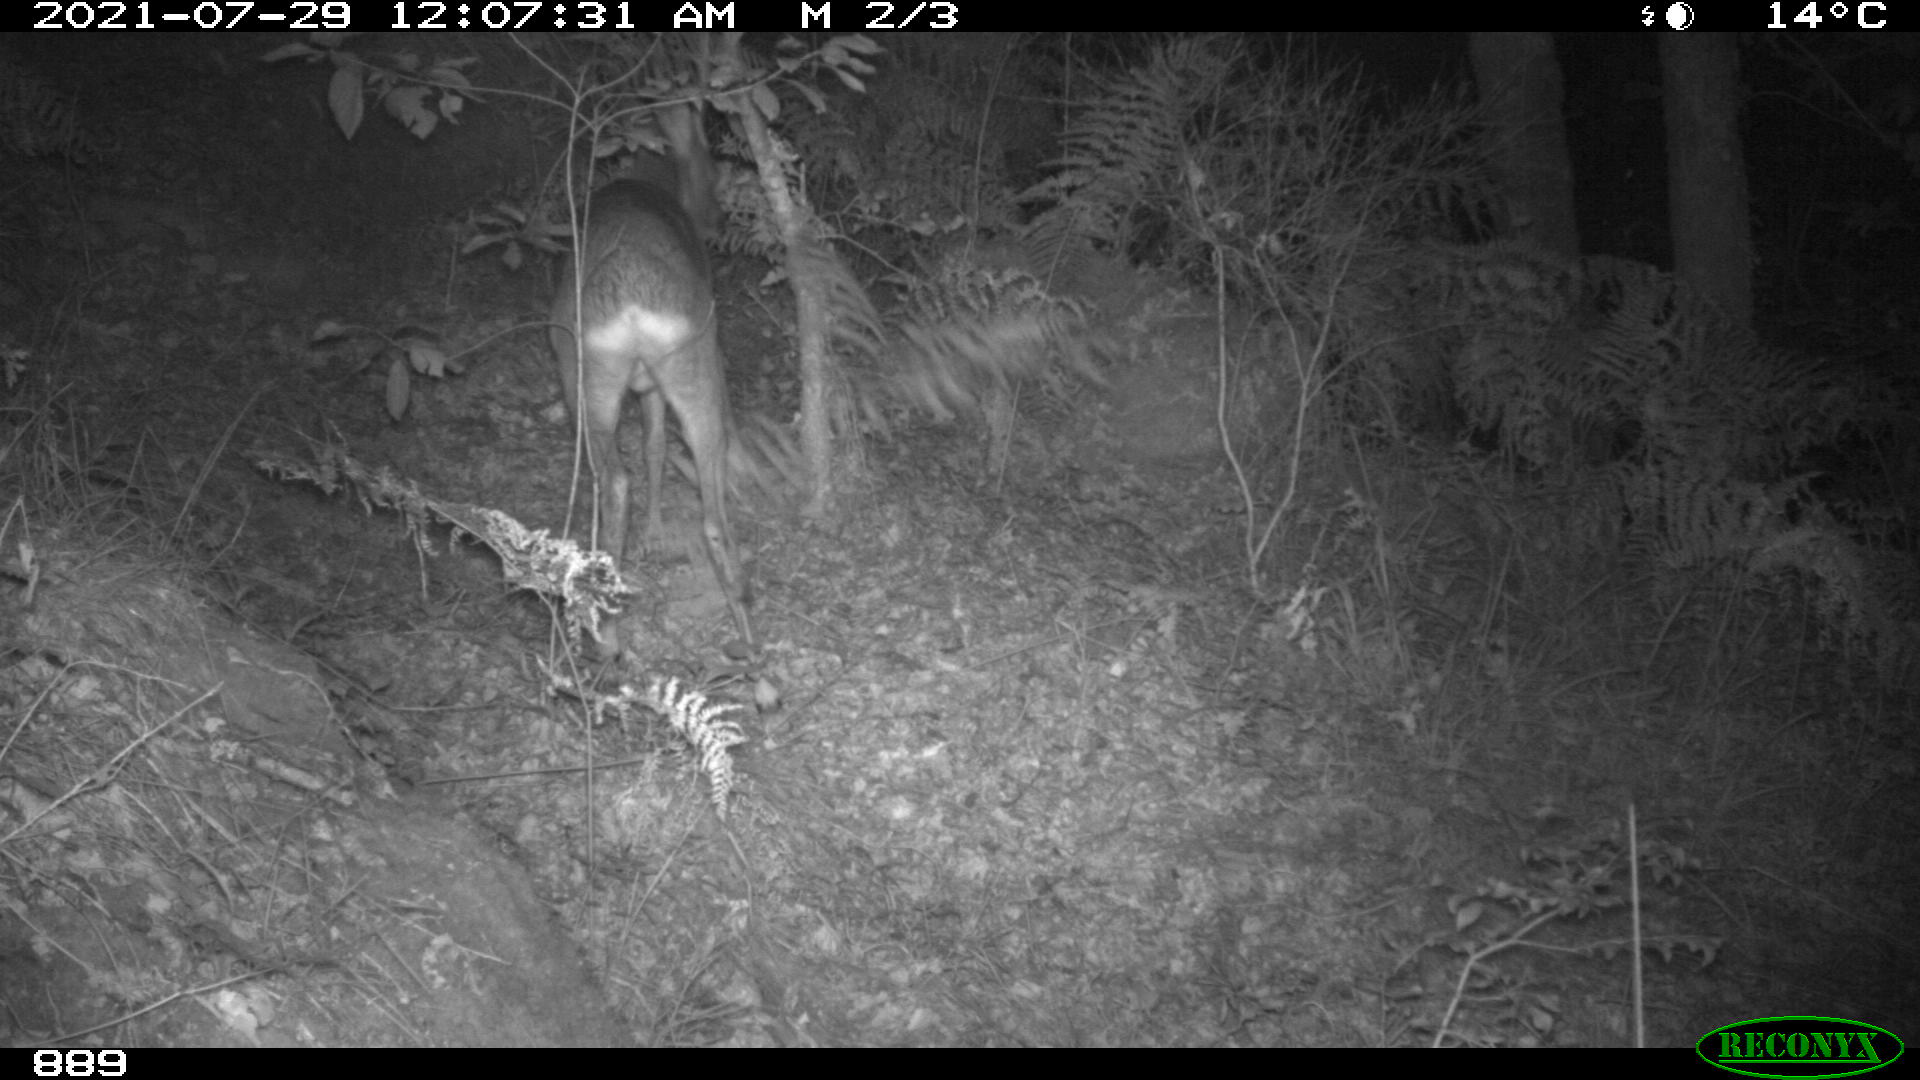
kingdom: Animalia
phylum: Chordata
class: Mammalia
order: Artiodactyla
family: Cervidae
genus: Capreolus
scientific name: Capreolus capreolus
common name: Western roe deer
